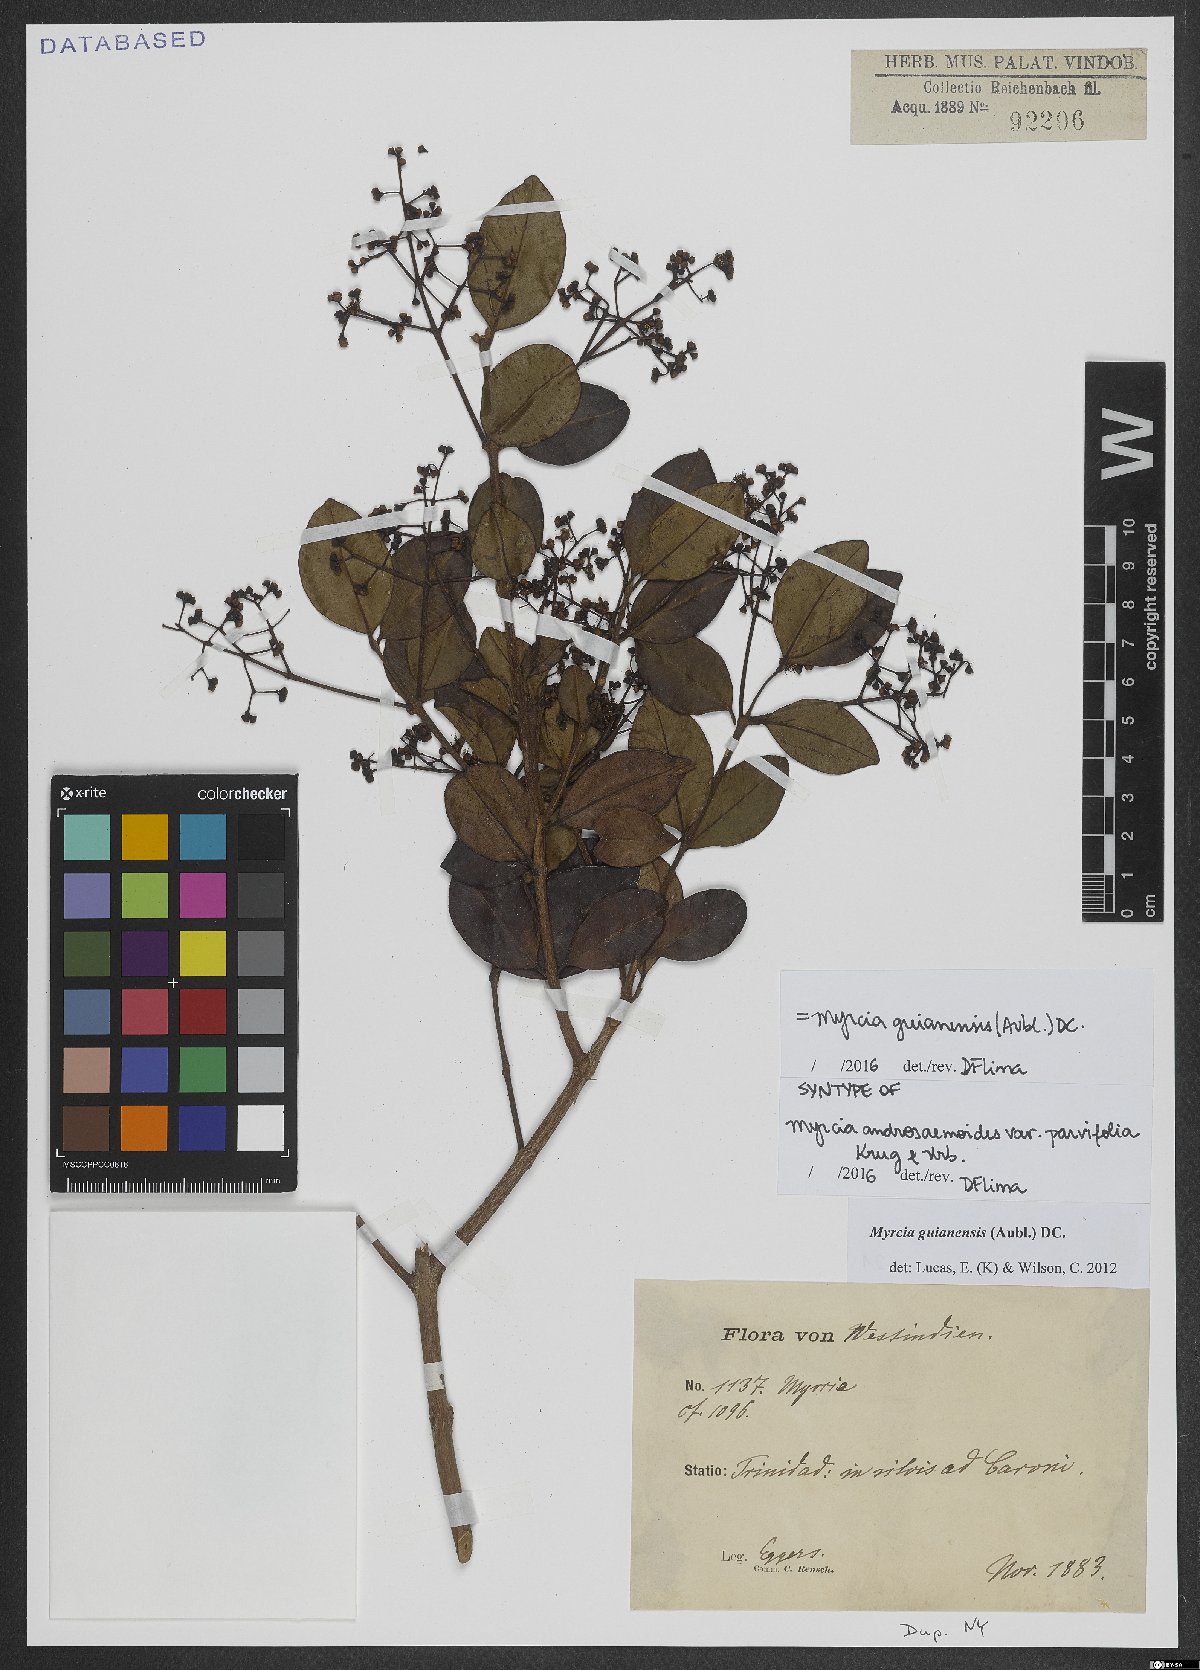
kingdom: Plantae
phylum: Tracheophyta
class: Magnoliopsida
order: Myrtales
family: Myrtaceae
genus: Myrcia
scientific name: Myrcia guianensis
